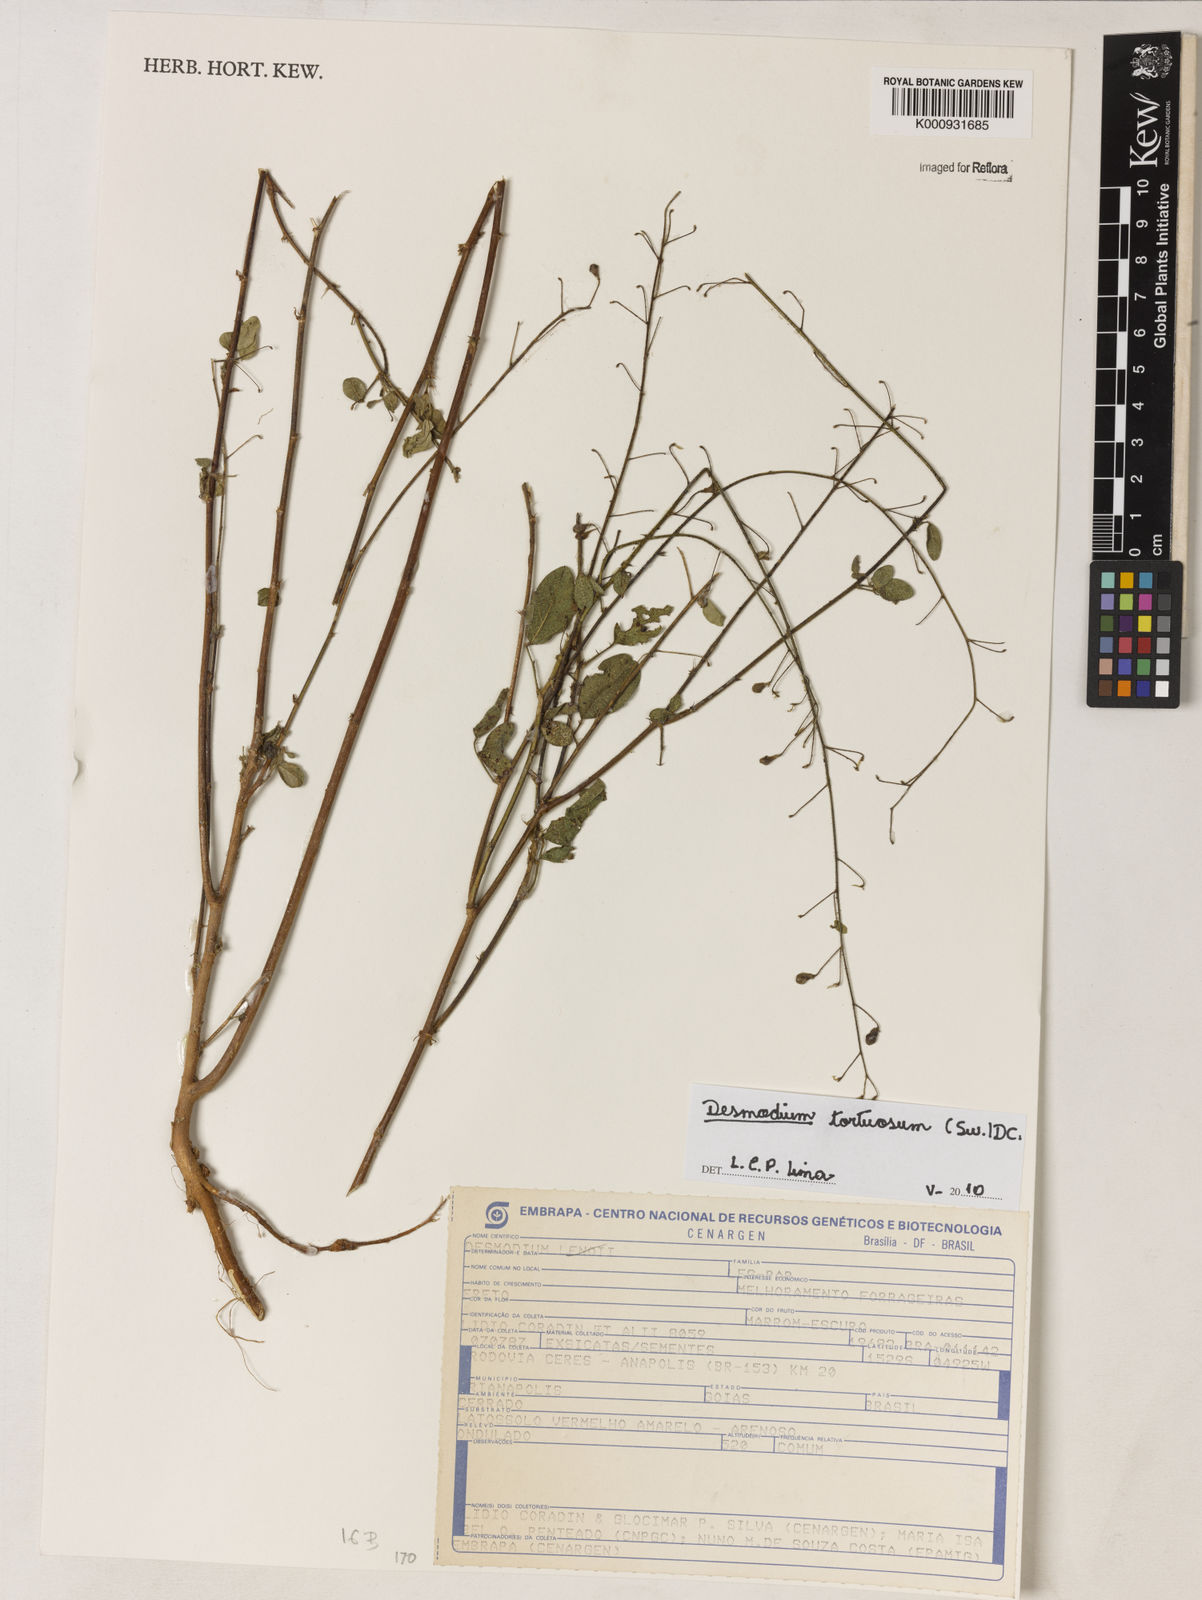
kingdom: Plantae
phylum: Tracheophyta
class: Magnoliopsida
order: Fabales
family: Fabaceae
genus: Desmodium
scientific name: Desmodium tortuosum
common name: Dixie ticktrefoil
